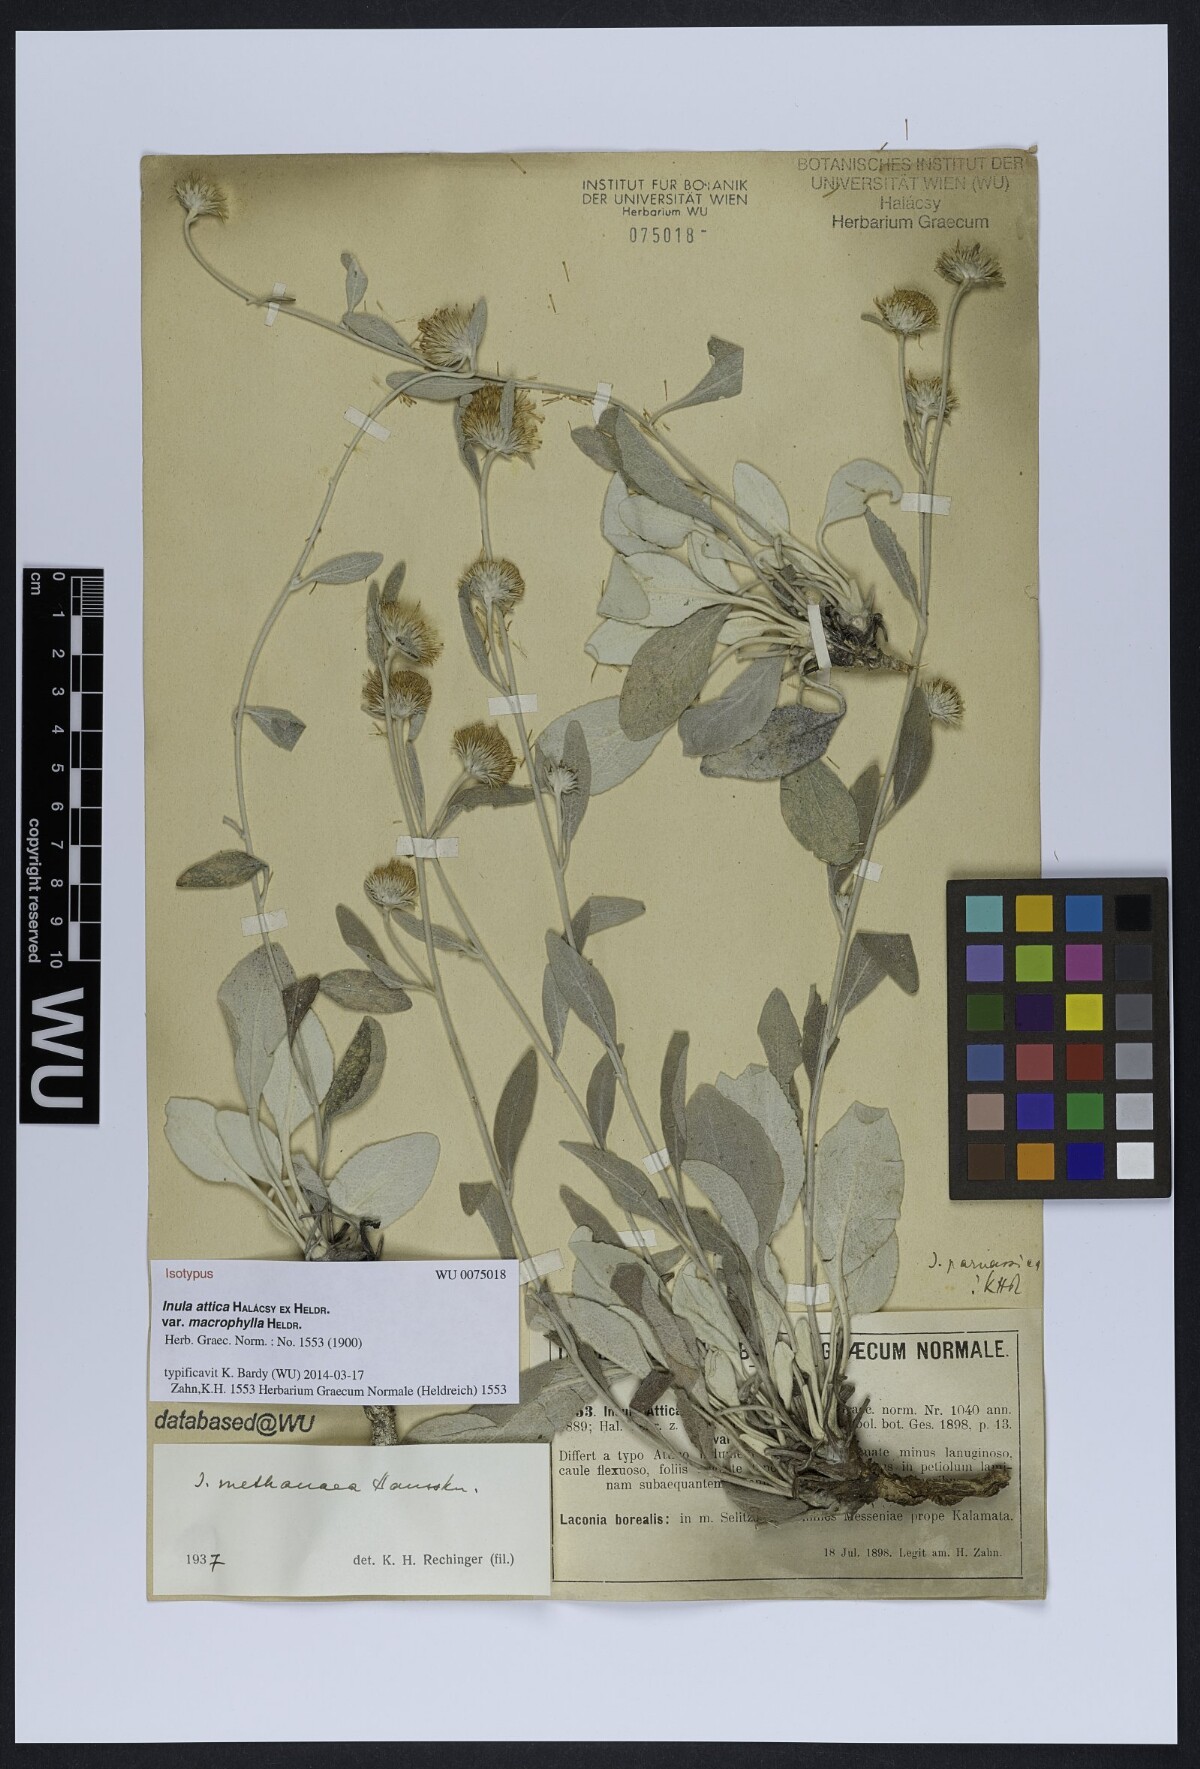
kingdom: Plantae
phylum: Tracheophyta
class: Magnoliopsida
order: Asterales
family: Asteraceae
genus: Pentanema
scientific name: Pentanema verbascifolium
